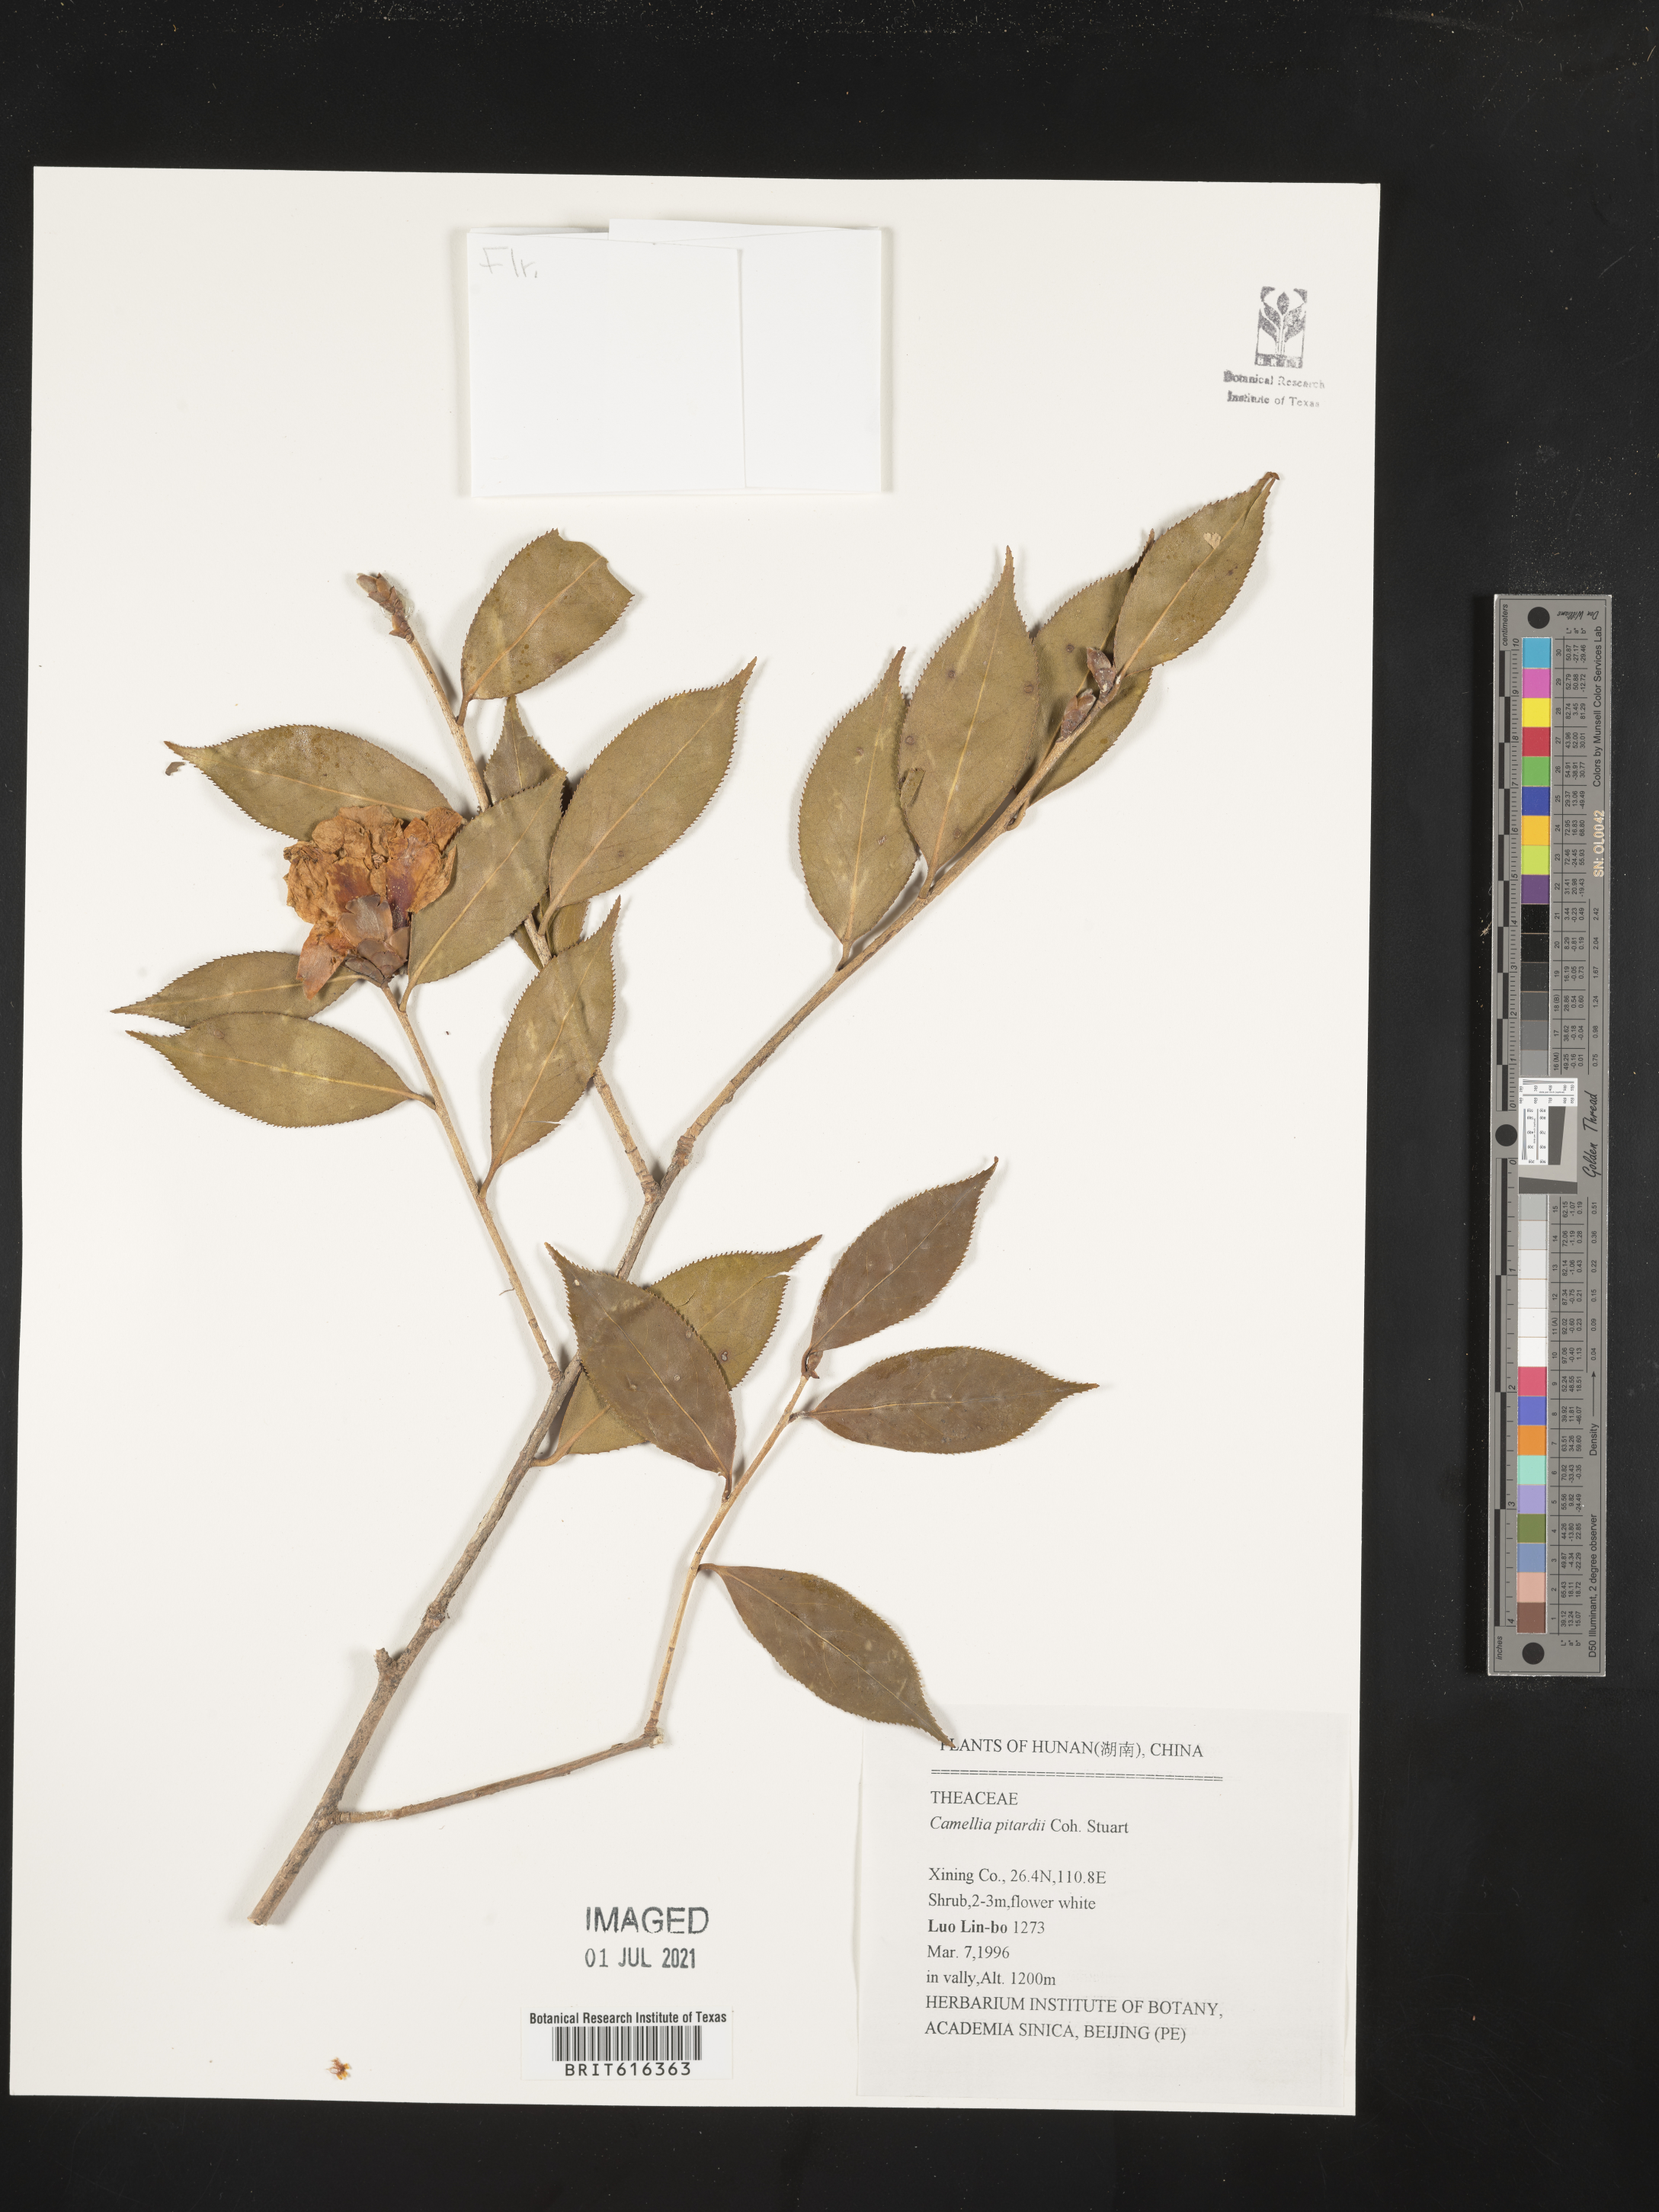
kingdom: Plantae
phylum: Tracheophyta
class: Magnoliopsida
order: Ericales
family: Theaceae
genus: Camellia
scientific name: Camellia pitardii
